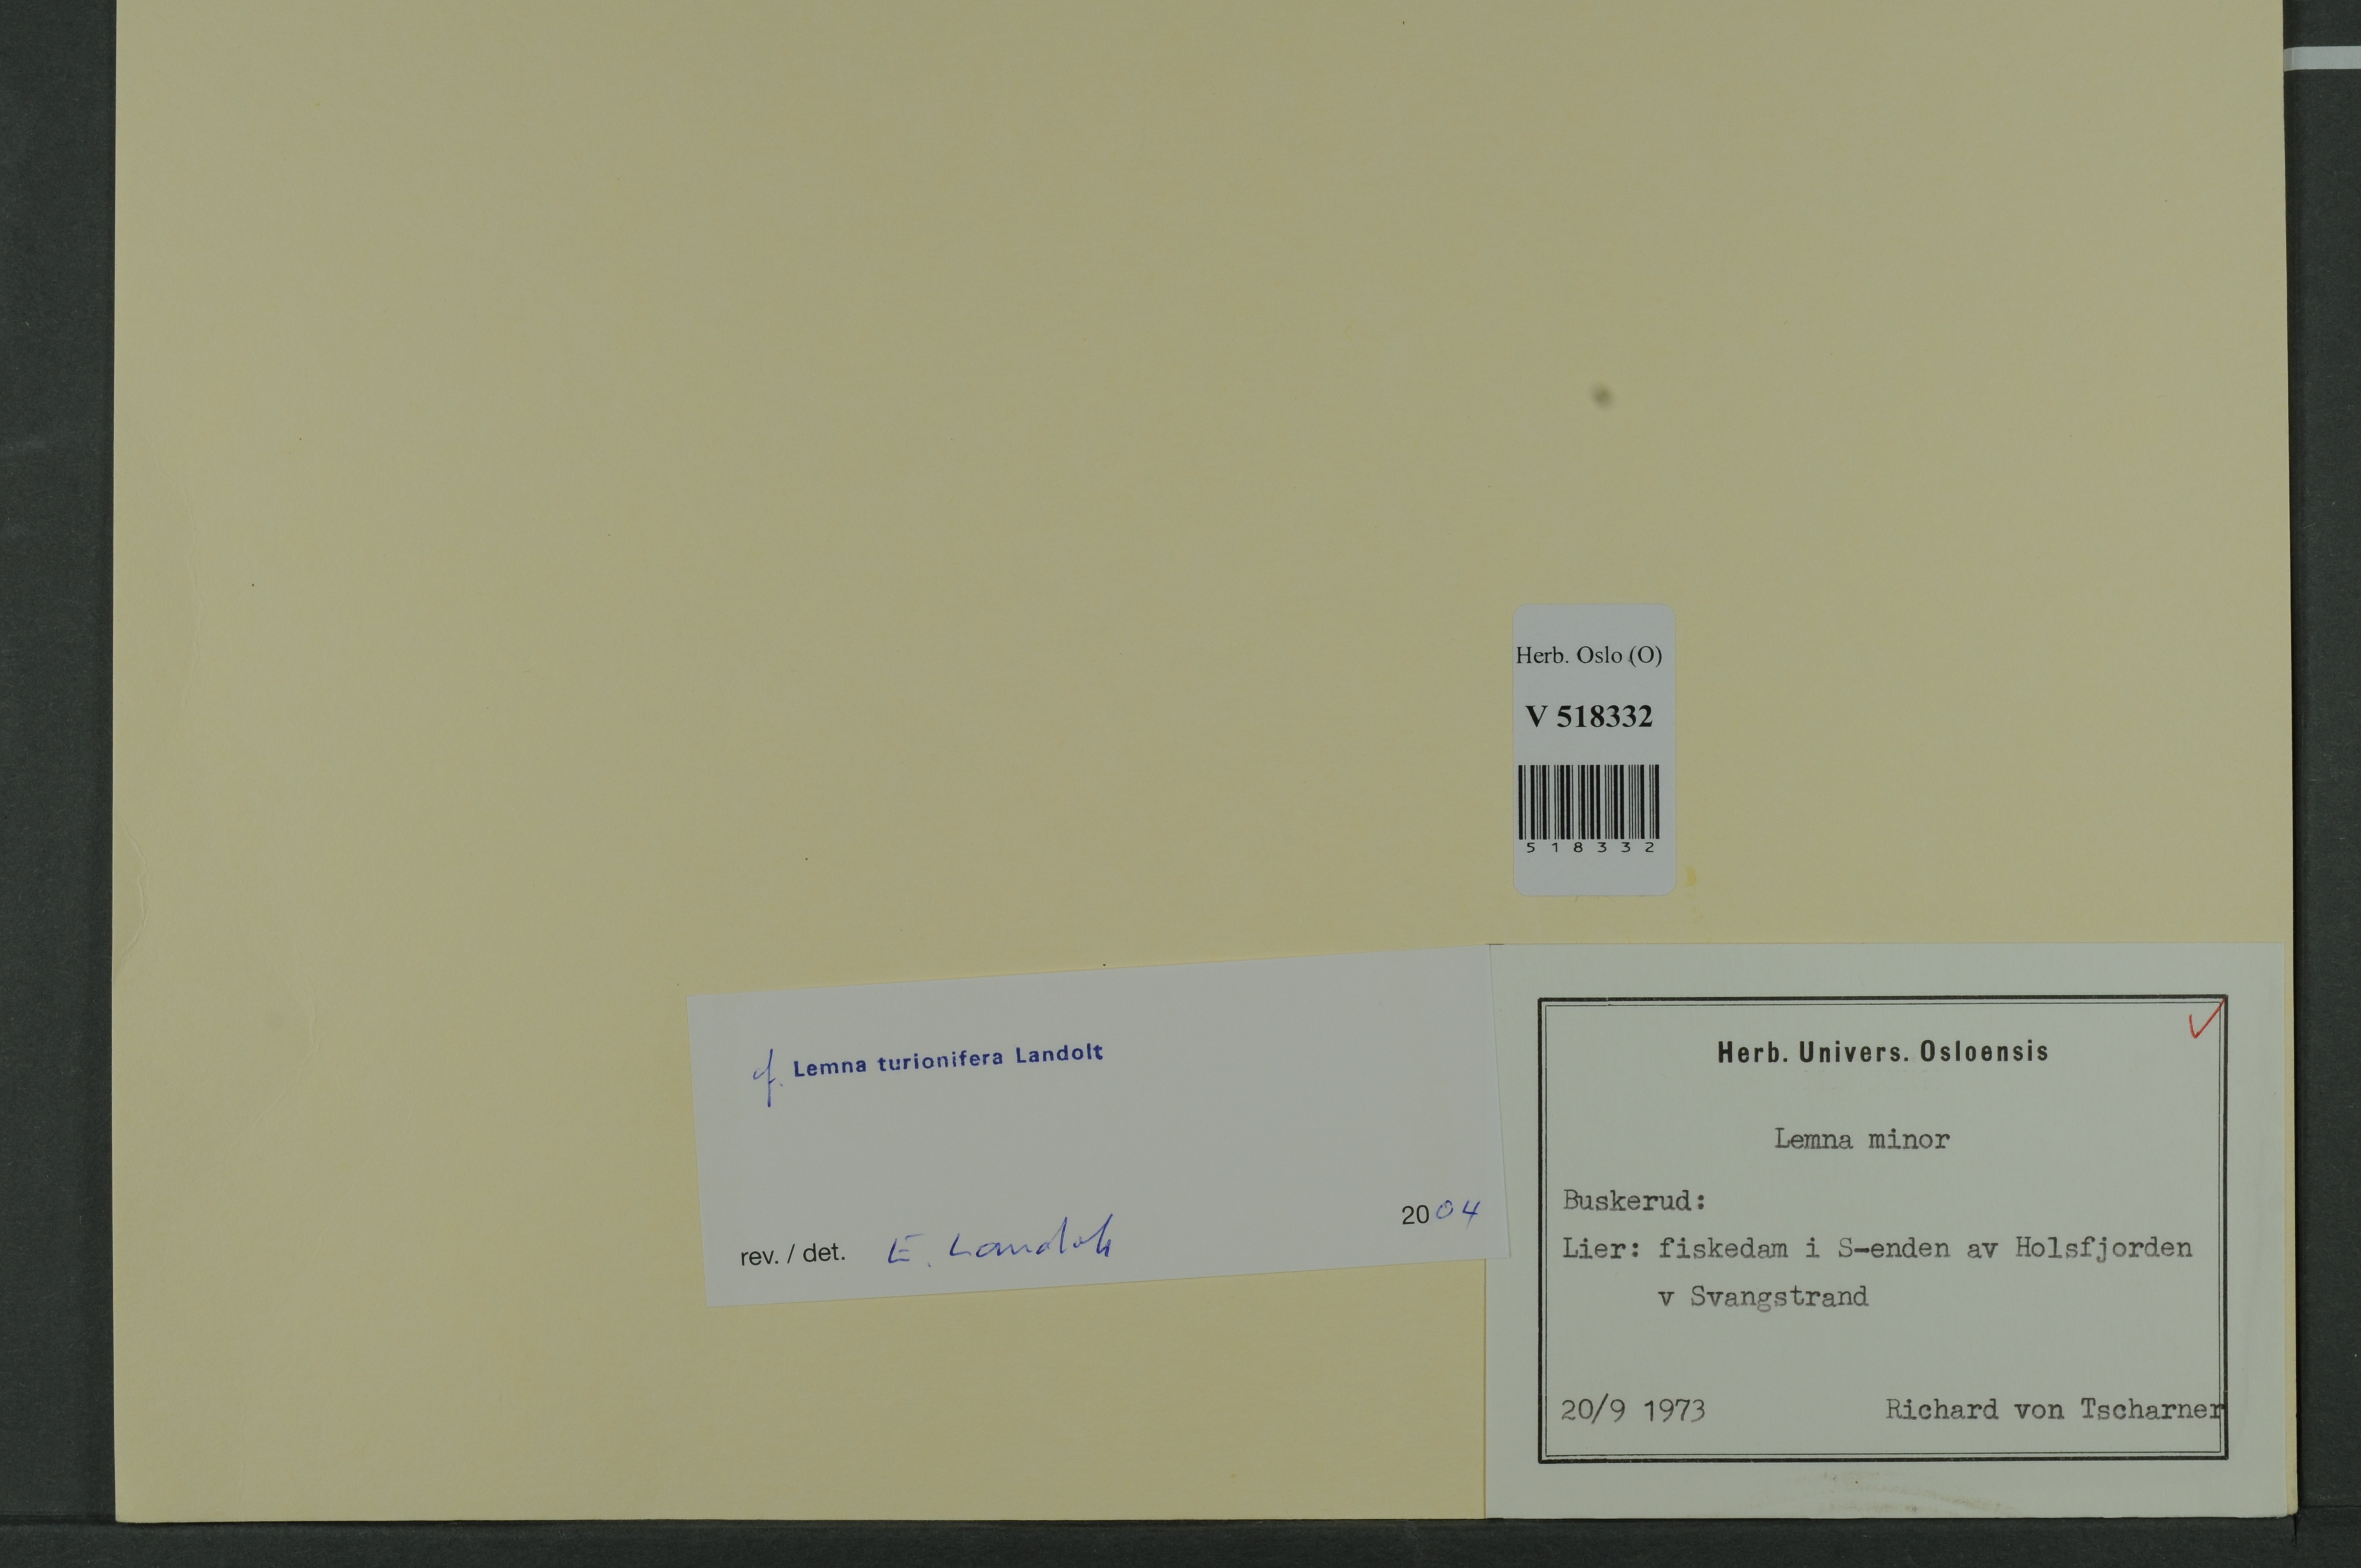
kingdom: Plantae
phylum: Tracheophyta
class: Liliopsida
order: Alismatales
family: Araceae
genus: Lemna
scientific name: Lemna turionifera
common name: Perennial duckweed
